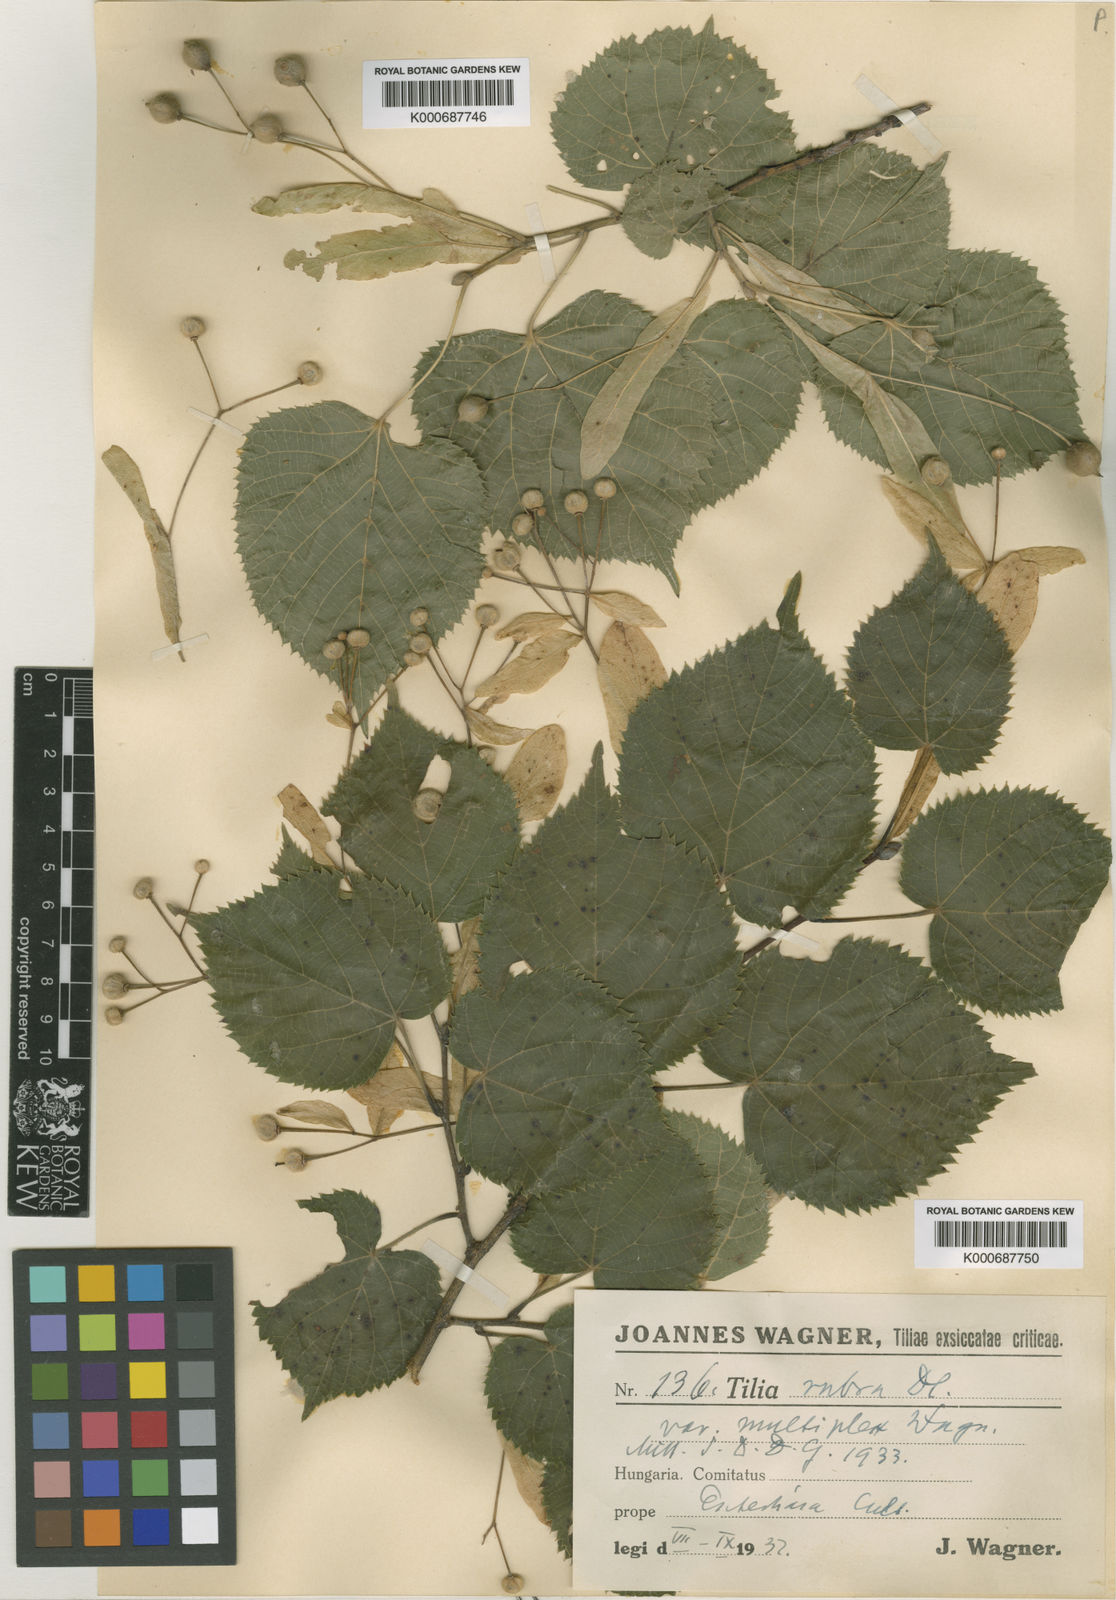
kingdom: Plantae
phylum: Tracheophyta
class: Magnoliopsida
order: Malvales
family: Malvaceae
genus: Tilia
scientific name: Tilia platyphyllos
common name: Large-leaved lime
